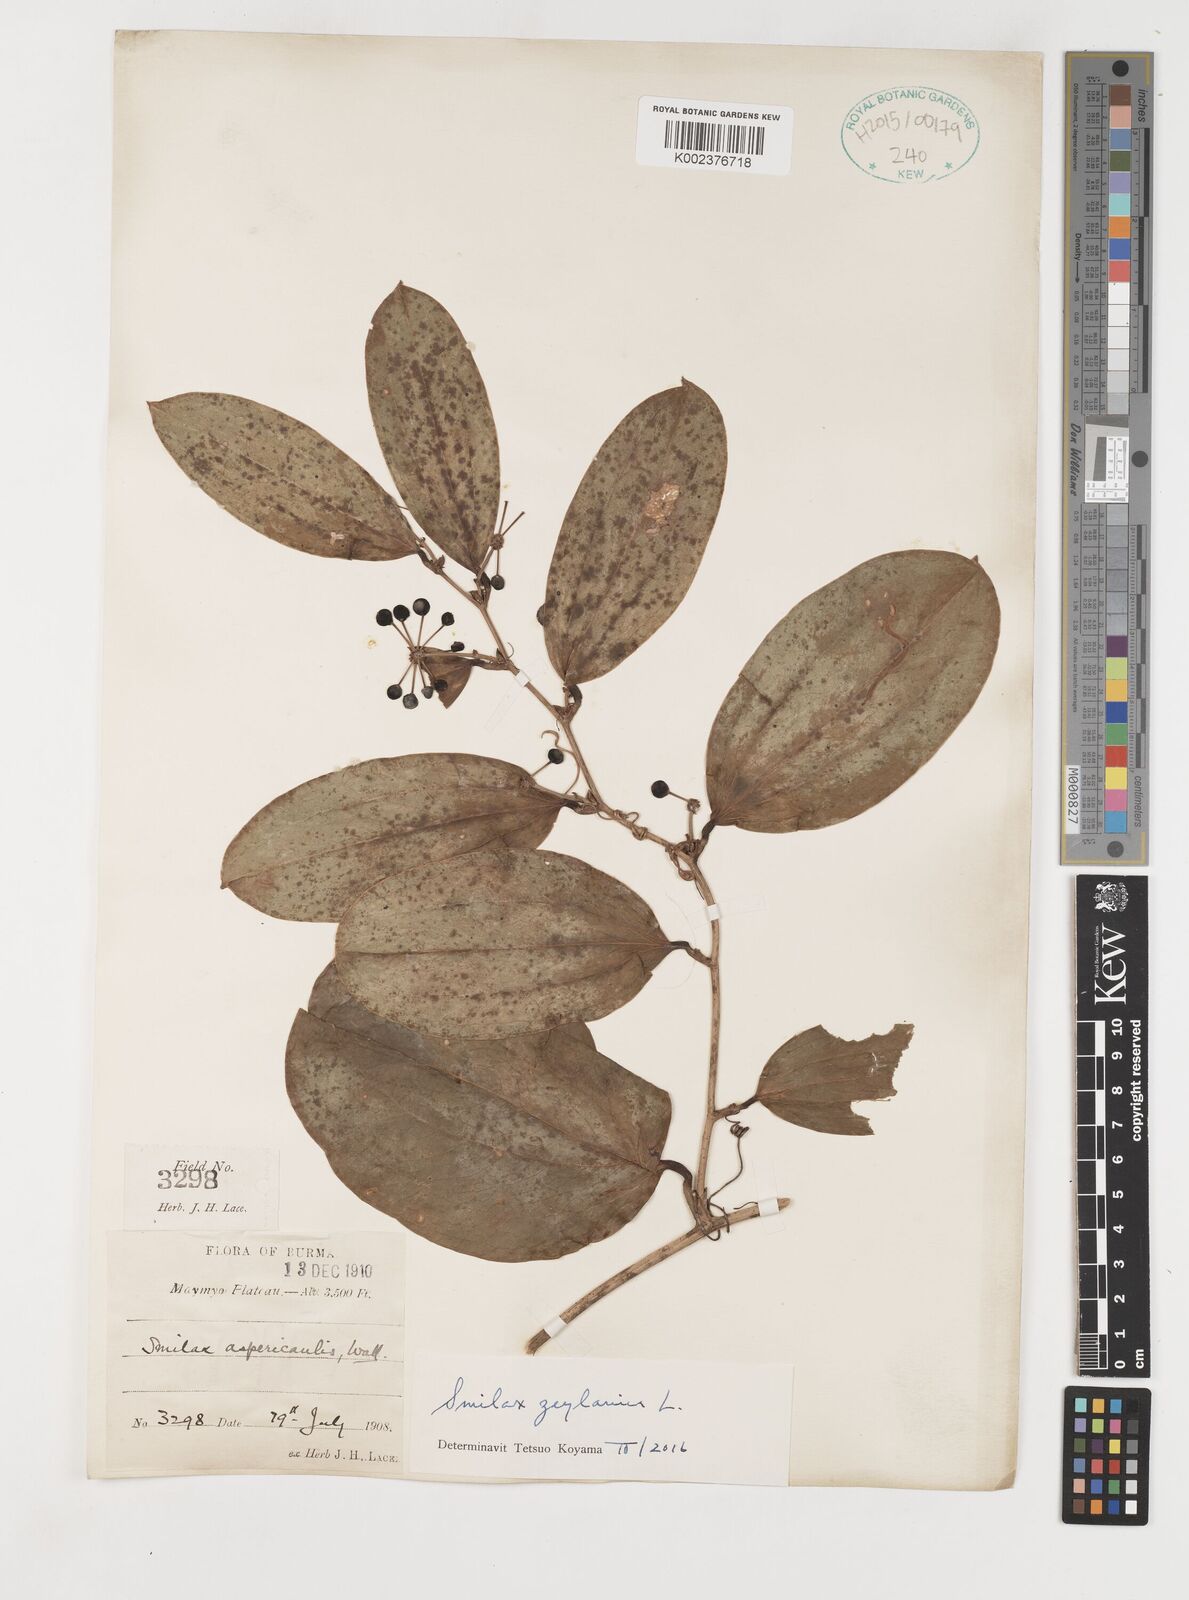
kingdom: Plantae
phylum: Tracheophyta
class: Liliopsida
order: Liliales
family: Smilacaceae
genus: Smilax
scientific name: Smilax zeylanica
